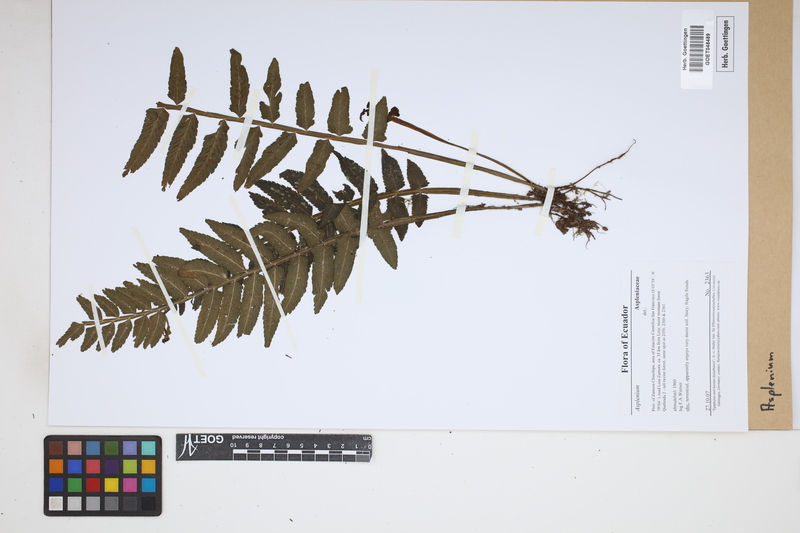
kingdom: Plantae
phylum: Tracheophyta
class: Polypodiopsida
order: Polypodiales
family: Aspleniaceae
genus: Asplenium
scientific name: Asplenium
